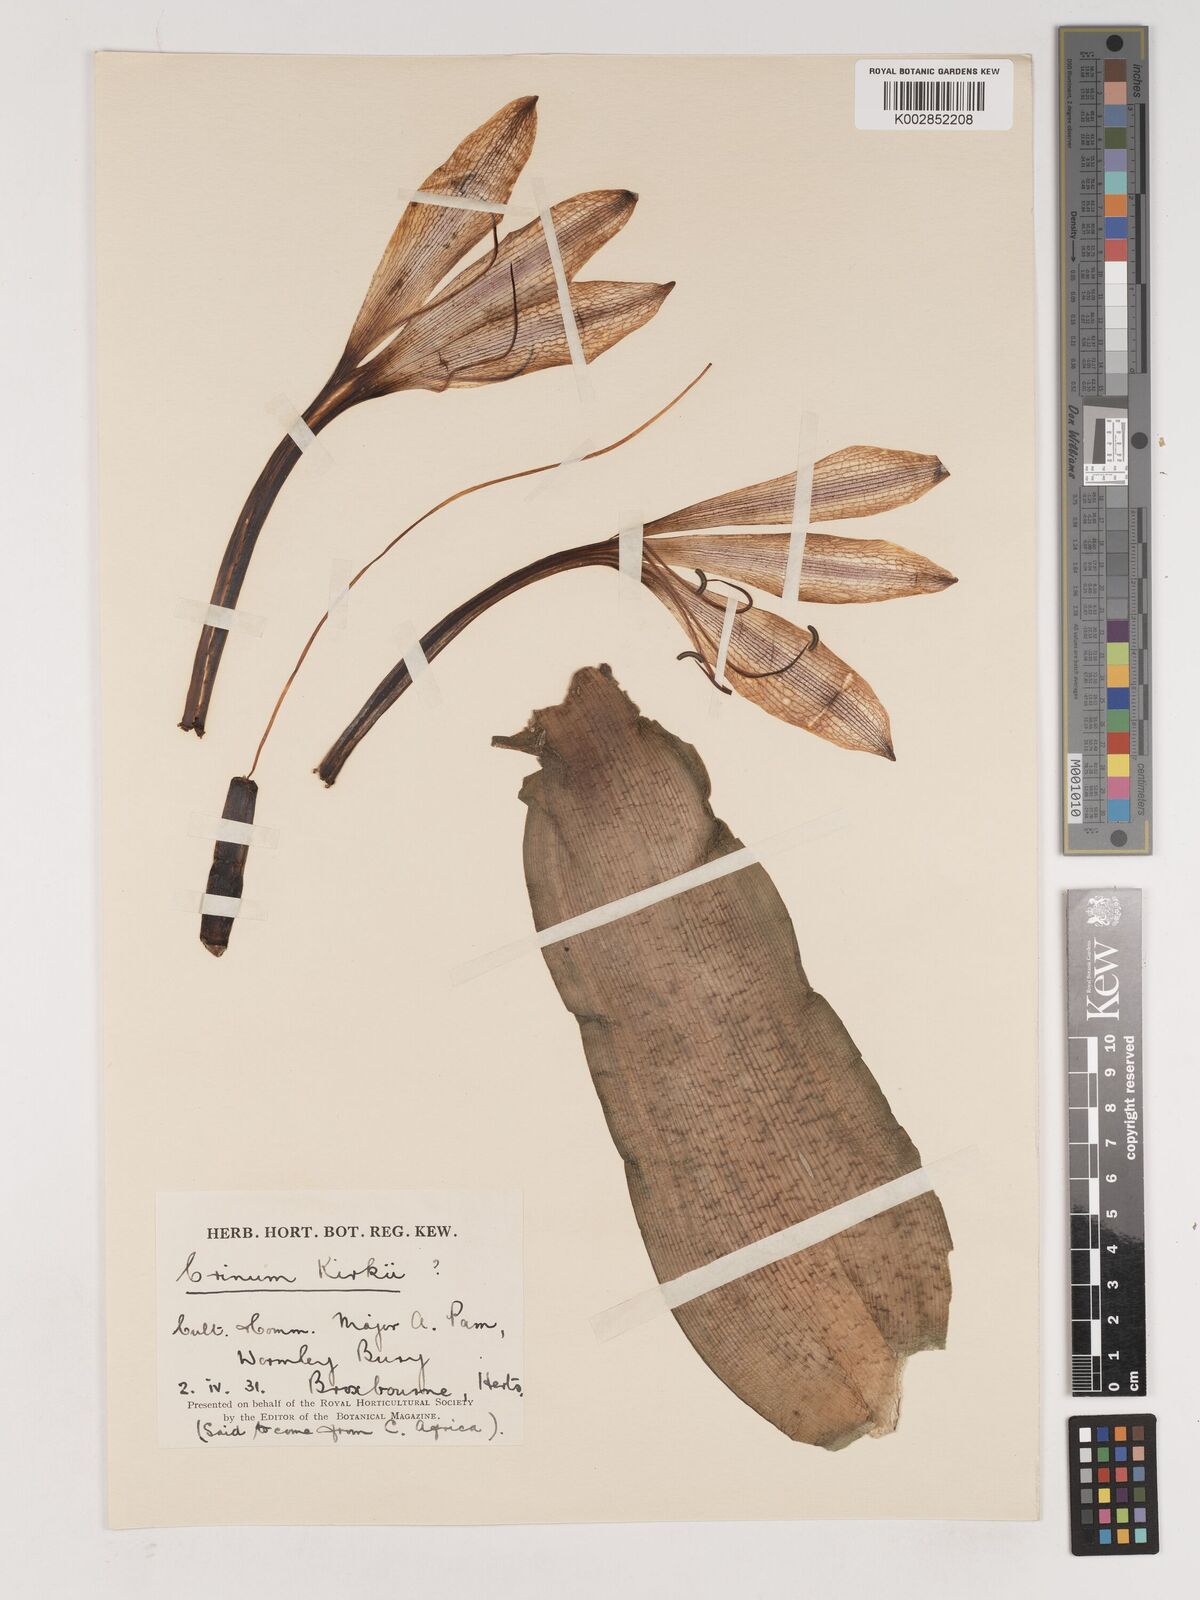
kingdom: Plantae
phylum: Tracheophyta
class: Liliopsida
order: Asparagales
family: Amaryllidaceae
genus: Crinum
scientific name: Crinum kirkii
